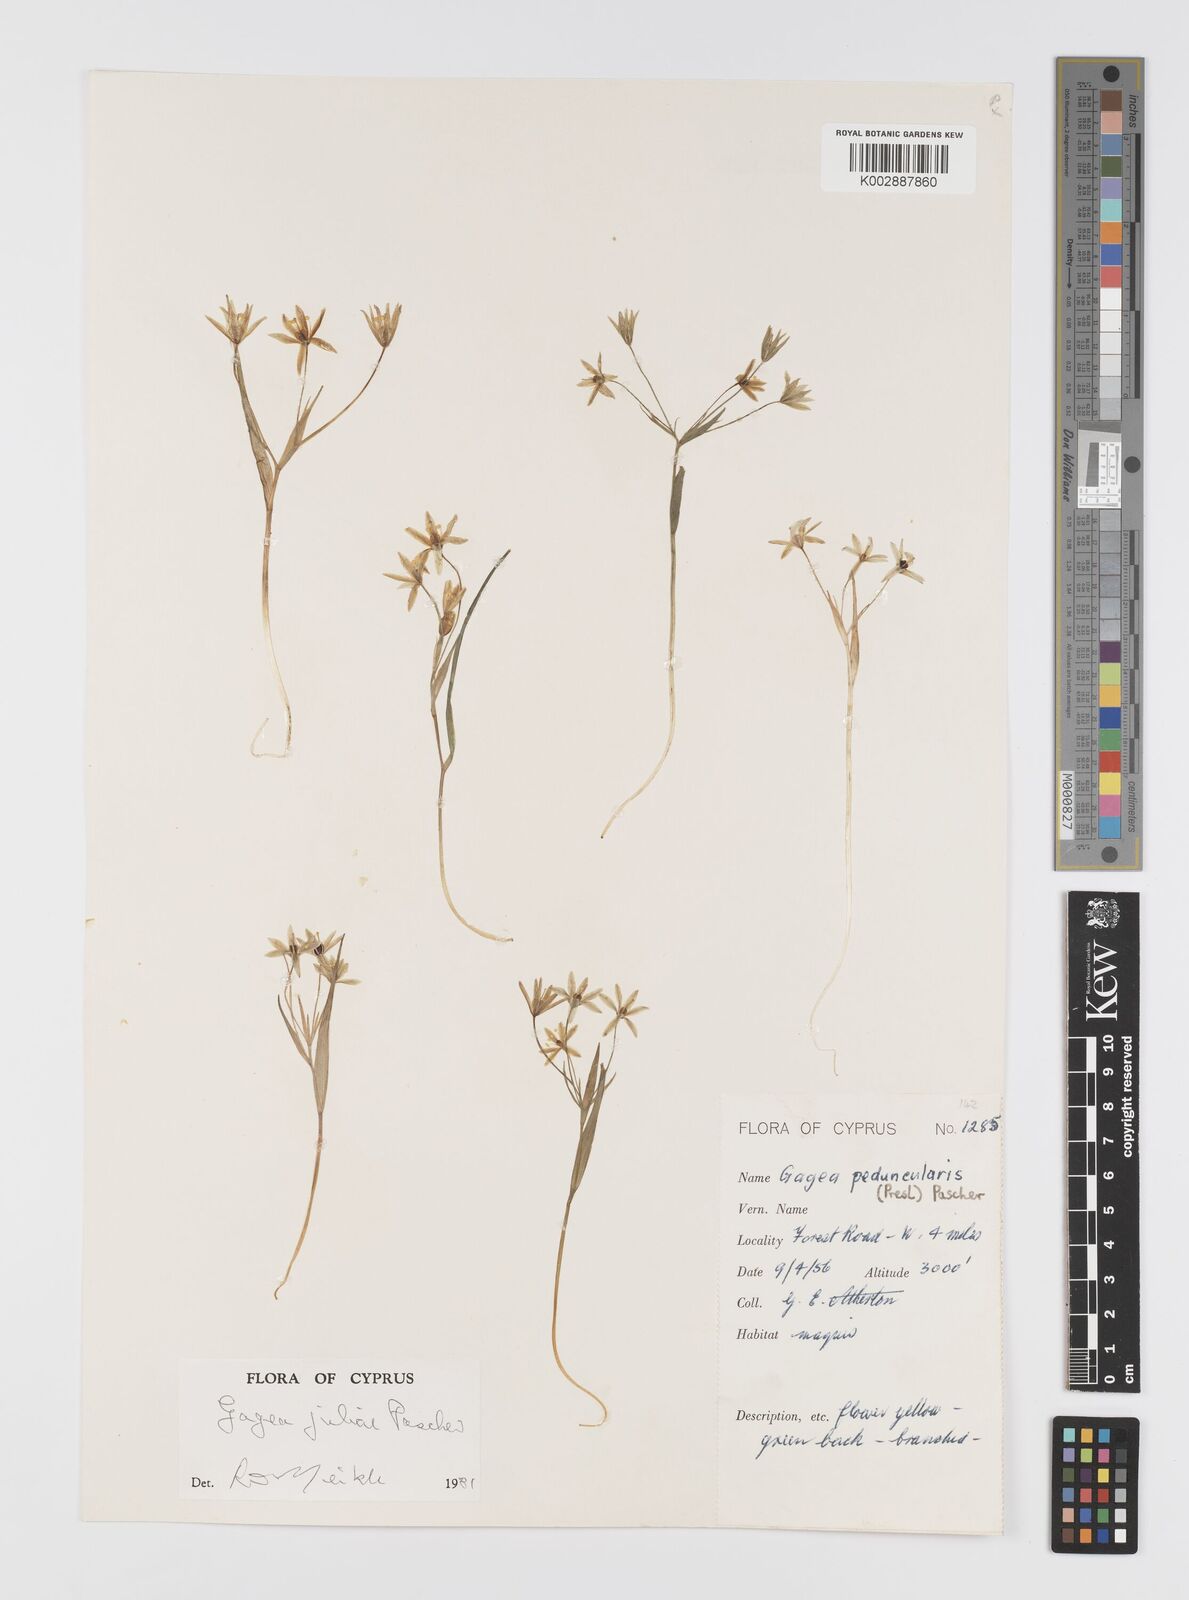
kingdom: Plantae
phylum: Tracheophyta
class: Liliopsida
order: Liliales
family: Liliaceae
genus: Gagea
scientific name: Gagea juliae
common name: Julia’s gagea
